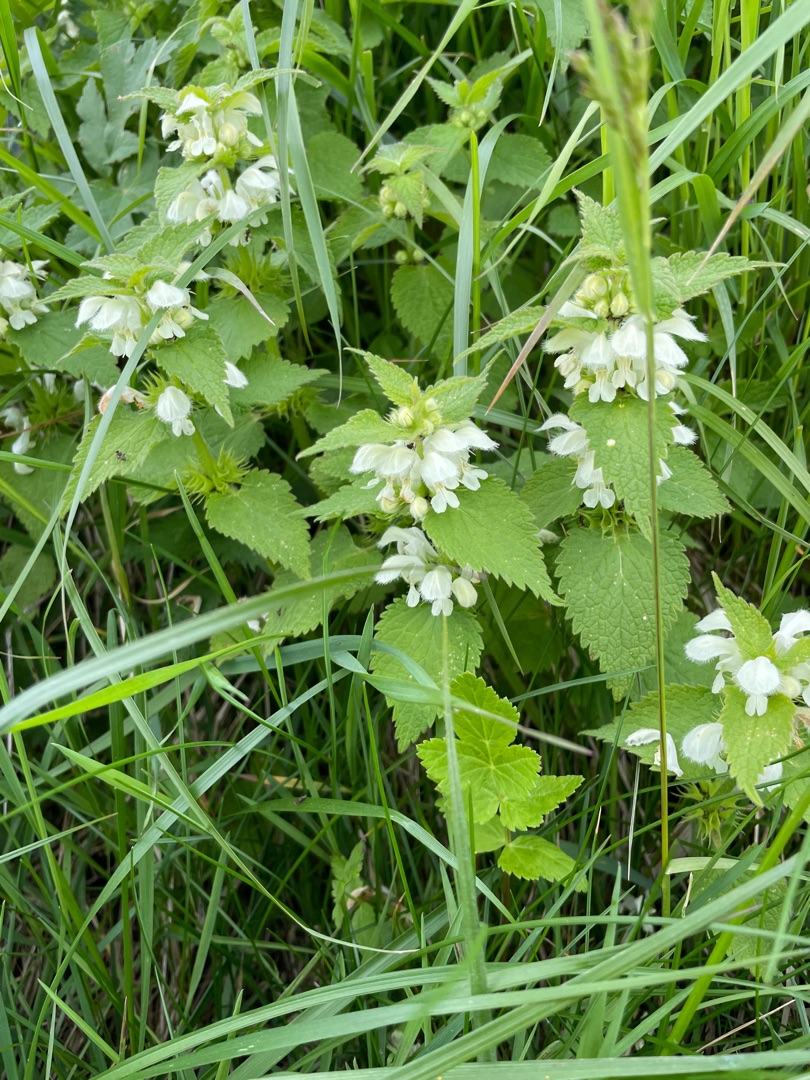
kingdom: Plantae
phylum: Tracheophyta
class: Magnoliopsida
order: Lamiales
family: Lamiaceae
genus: Lamium
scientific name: Lamium album
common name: Døvnælde
